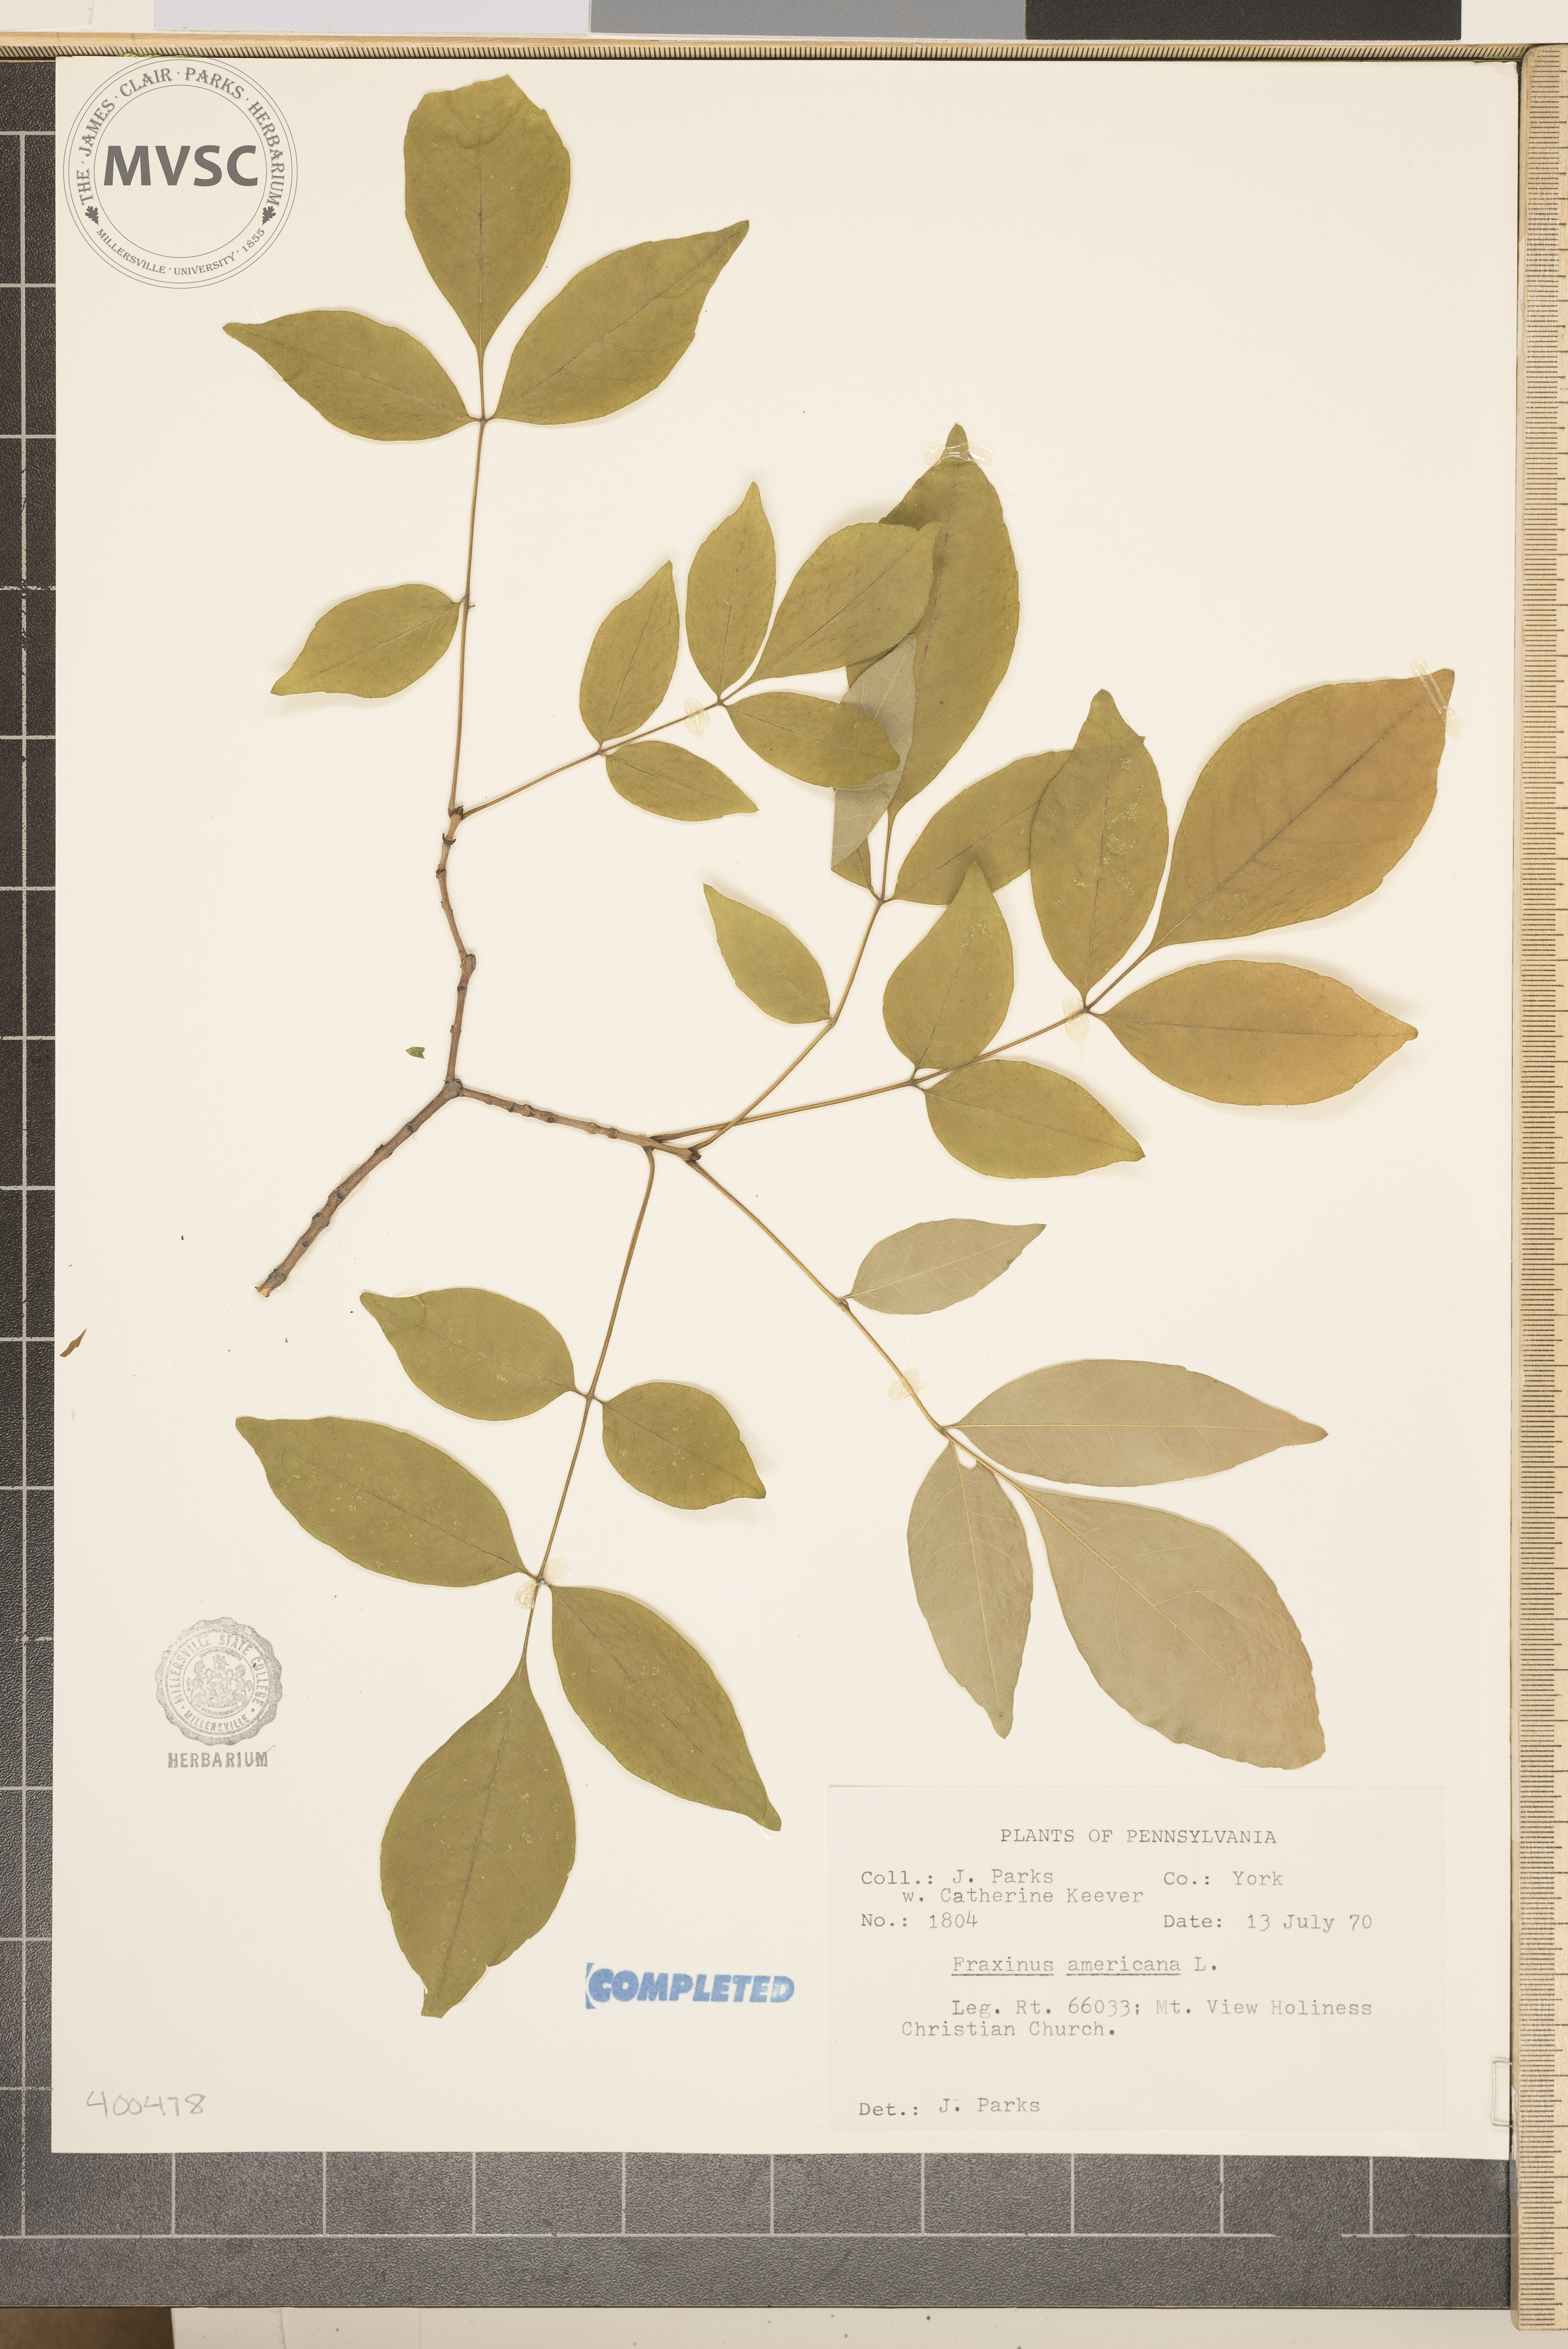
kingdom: Plantae
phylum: Tracheophyta
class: Magnoliopsida
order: Lamiales
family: Oleaceae
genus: Fraxinus
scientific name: Fraxinus americana
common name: ash
